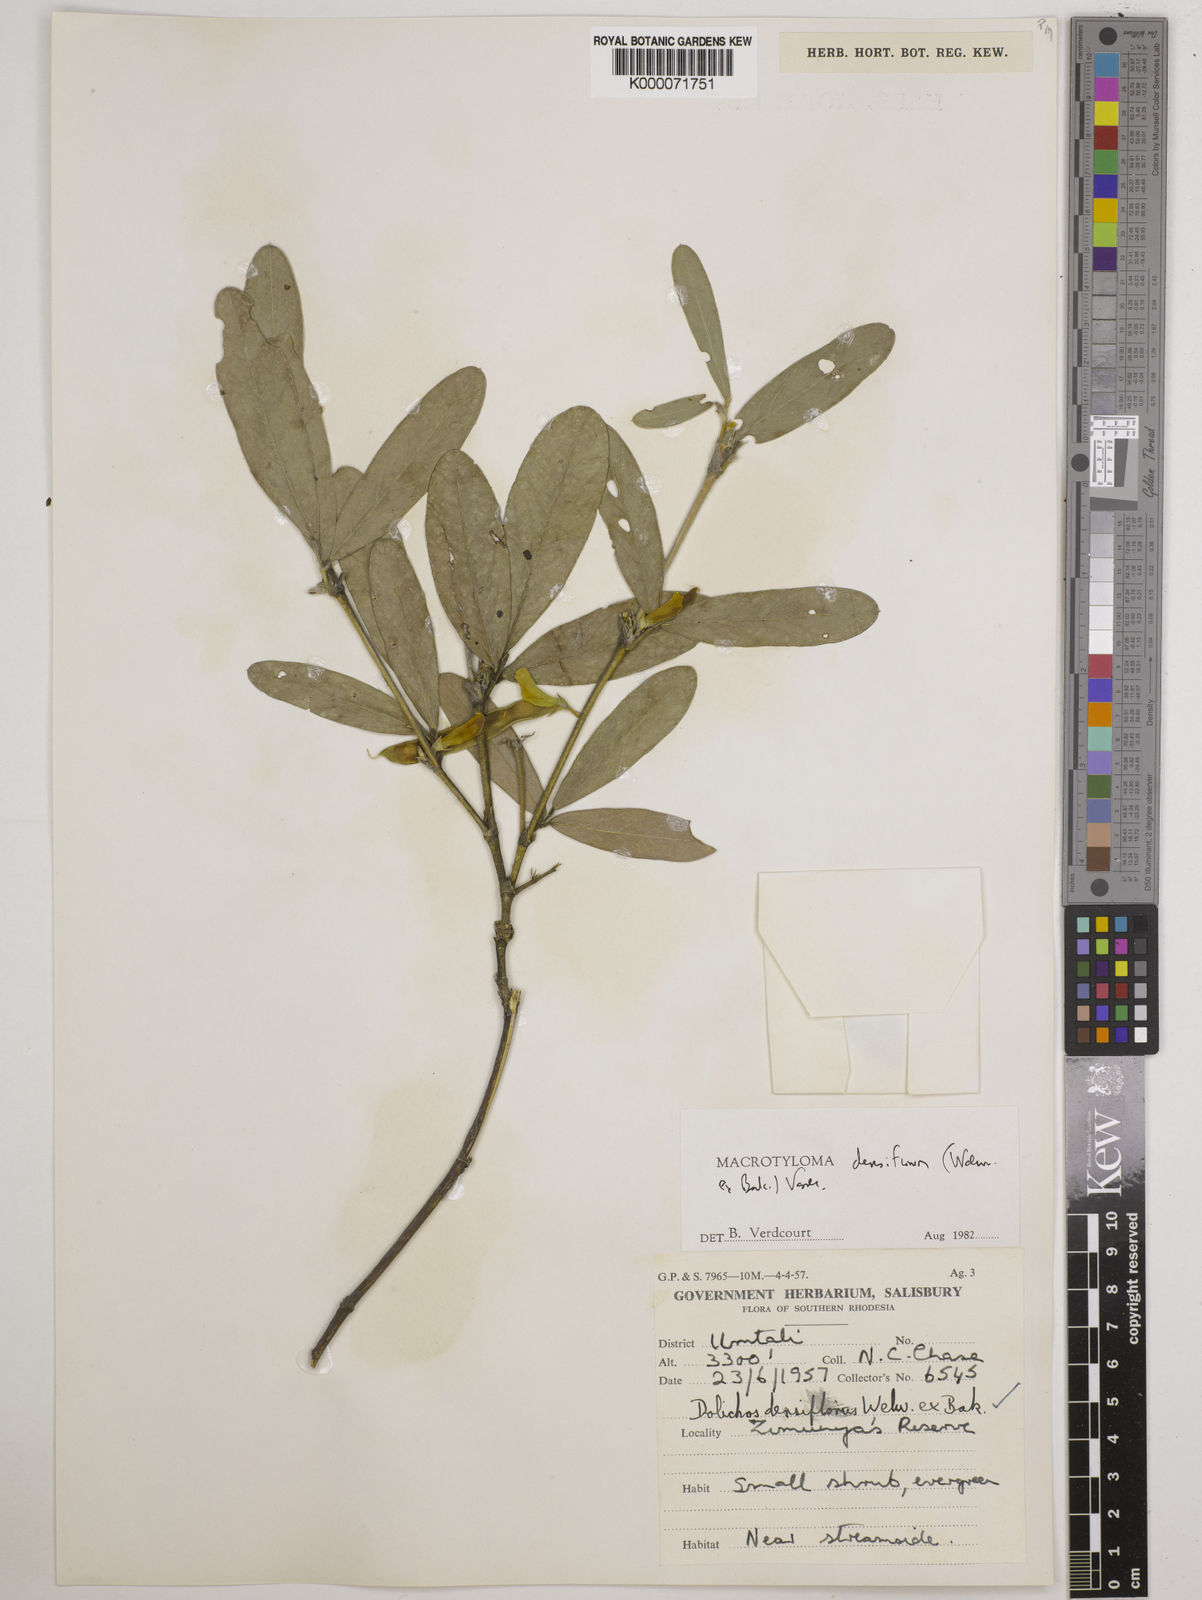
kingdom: Plantae
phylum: Tracheophyta
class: Magnoliopsida
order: Fabales
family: Fabaceae
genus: Macrotyloma
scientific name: Macrotyloma densiflorum
